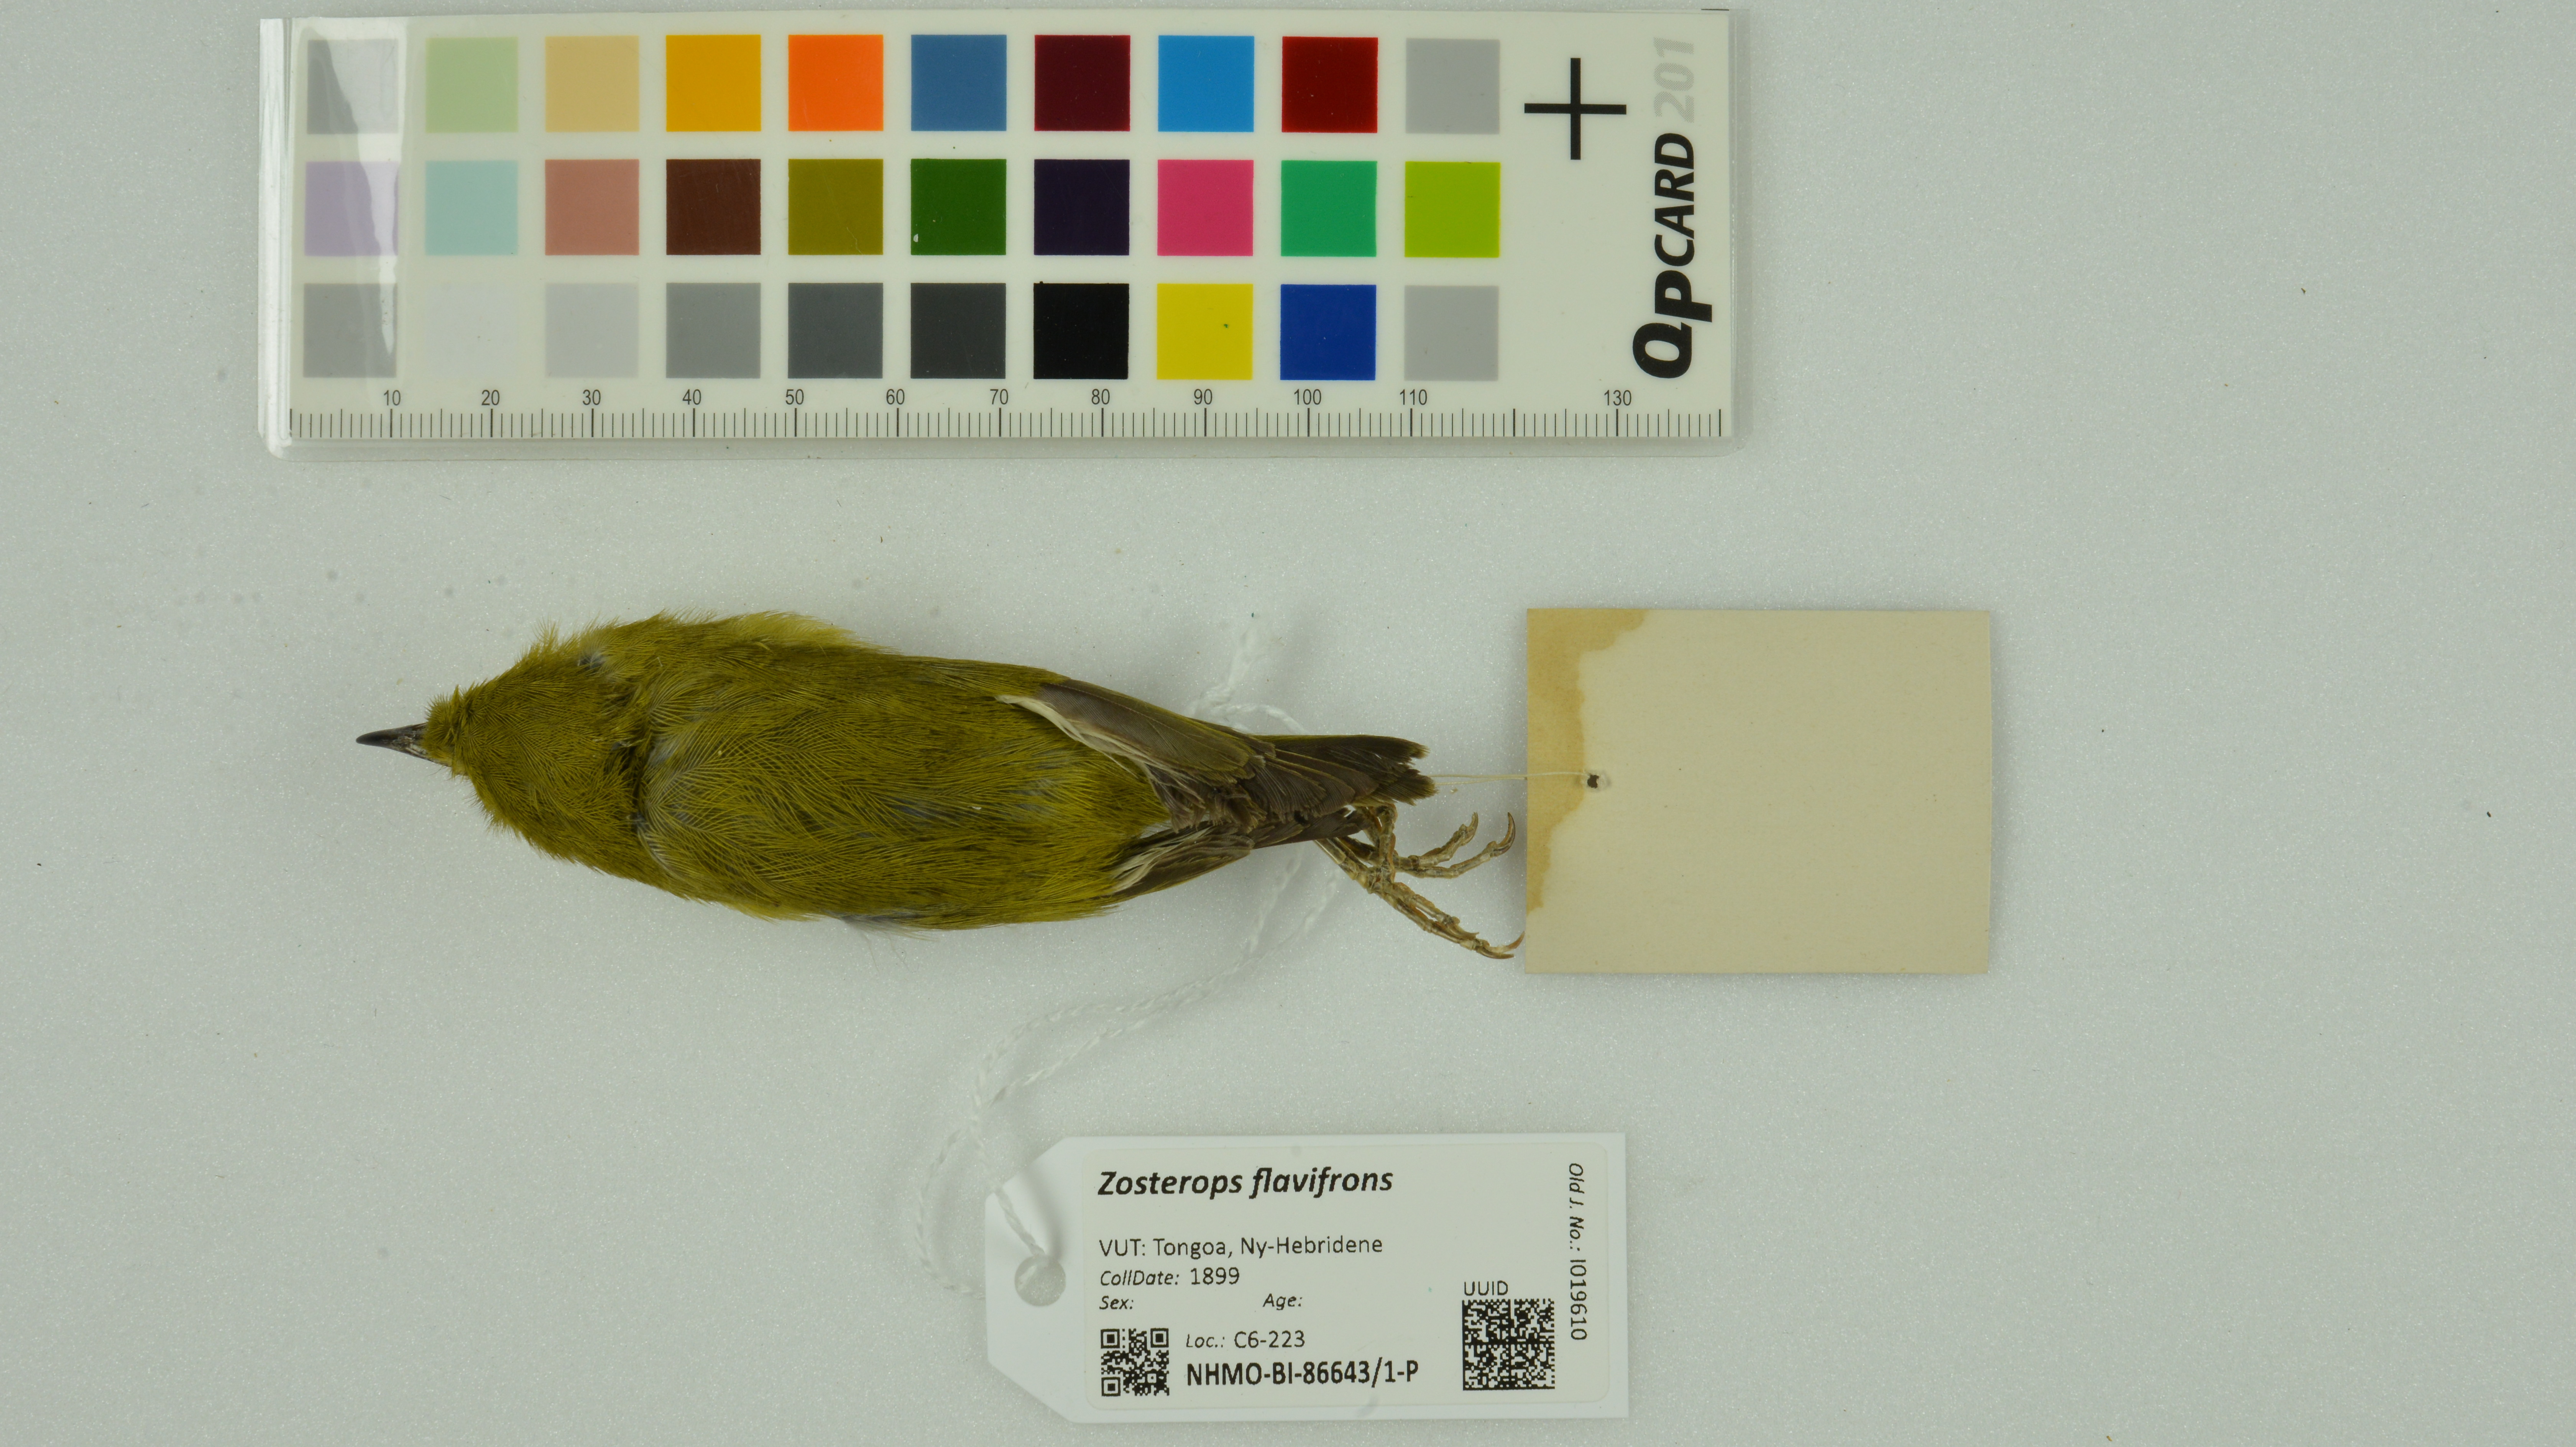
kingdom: Animalia
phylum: Chordata
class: Aves
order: Passeriformes
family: Zosteropidae
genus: Zosterops
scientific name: Zosterops flavifrons
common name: Vanuatu white-eye
